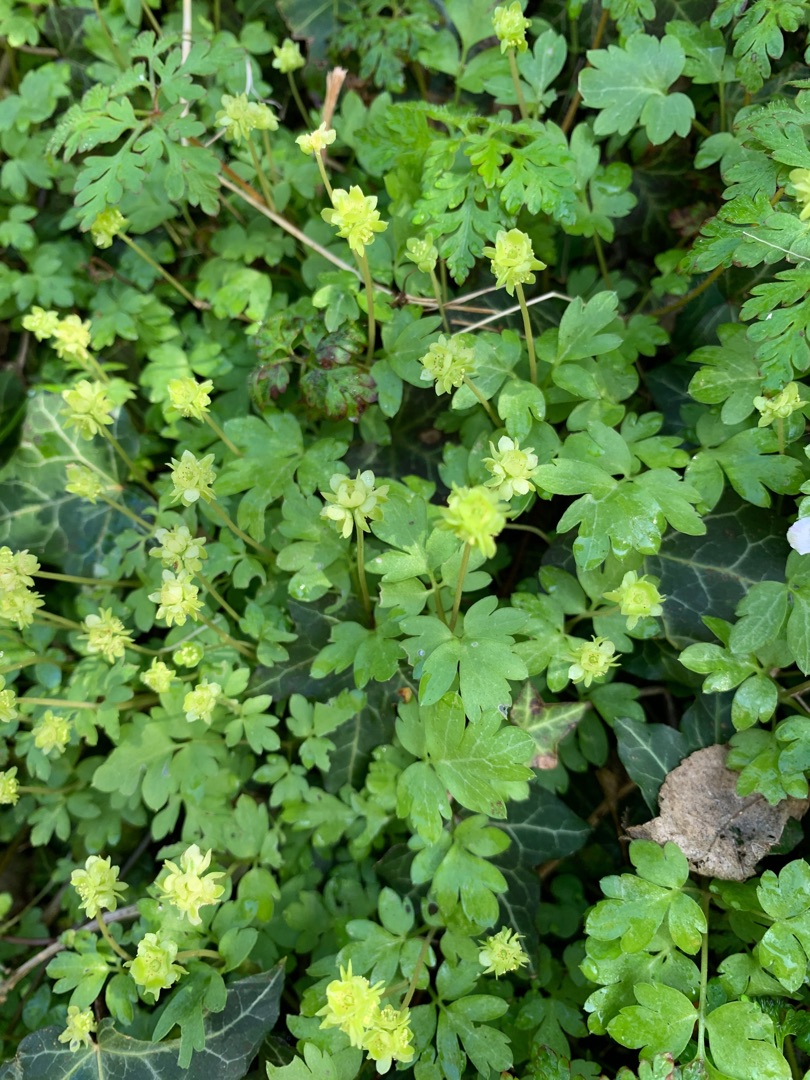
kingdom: Plantae
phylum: Tracheophyta
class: Magnoliopsida
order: Dipsacales
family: Viburnaceae
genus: Adoxa
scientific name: Adoxa moschatellina
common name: Desmerurt
